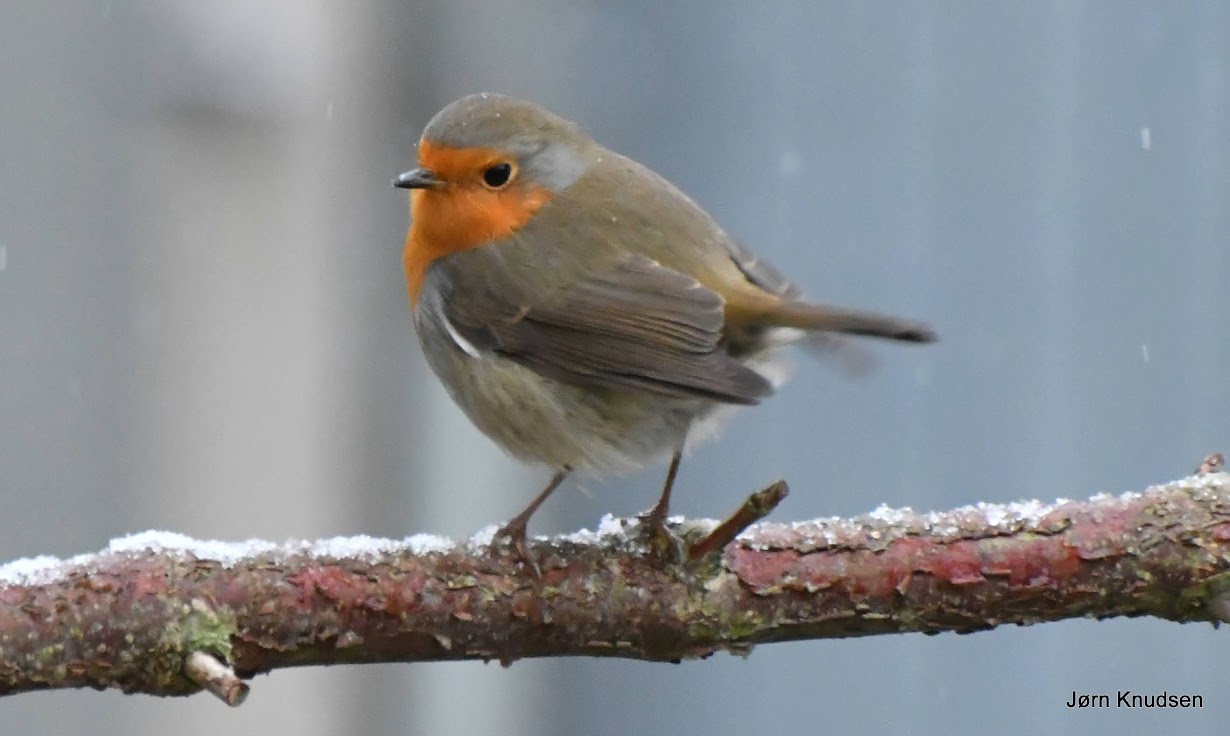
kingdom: Animalia
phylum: Chordata
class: Aves
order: Passeriformes
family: Muscicapidae
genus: Erithacus
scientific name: Erithacus rubecula
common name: Rødhals/rødkælk
